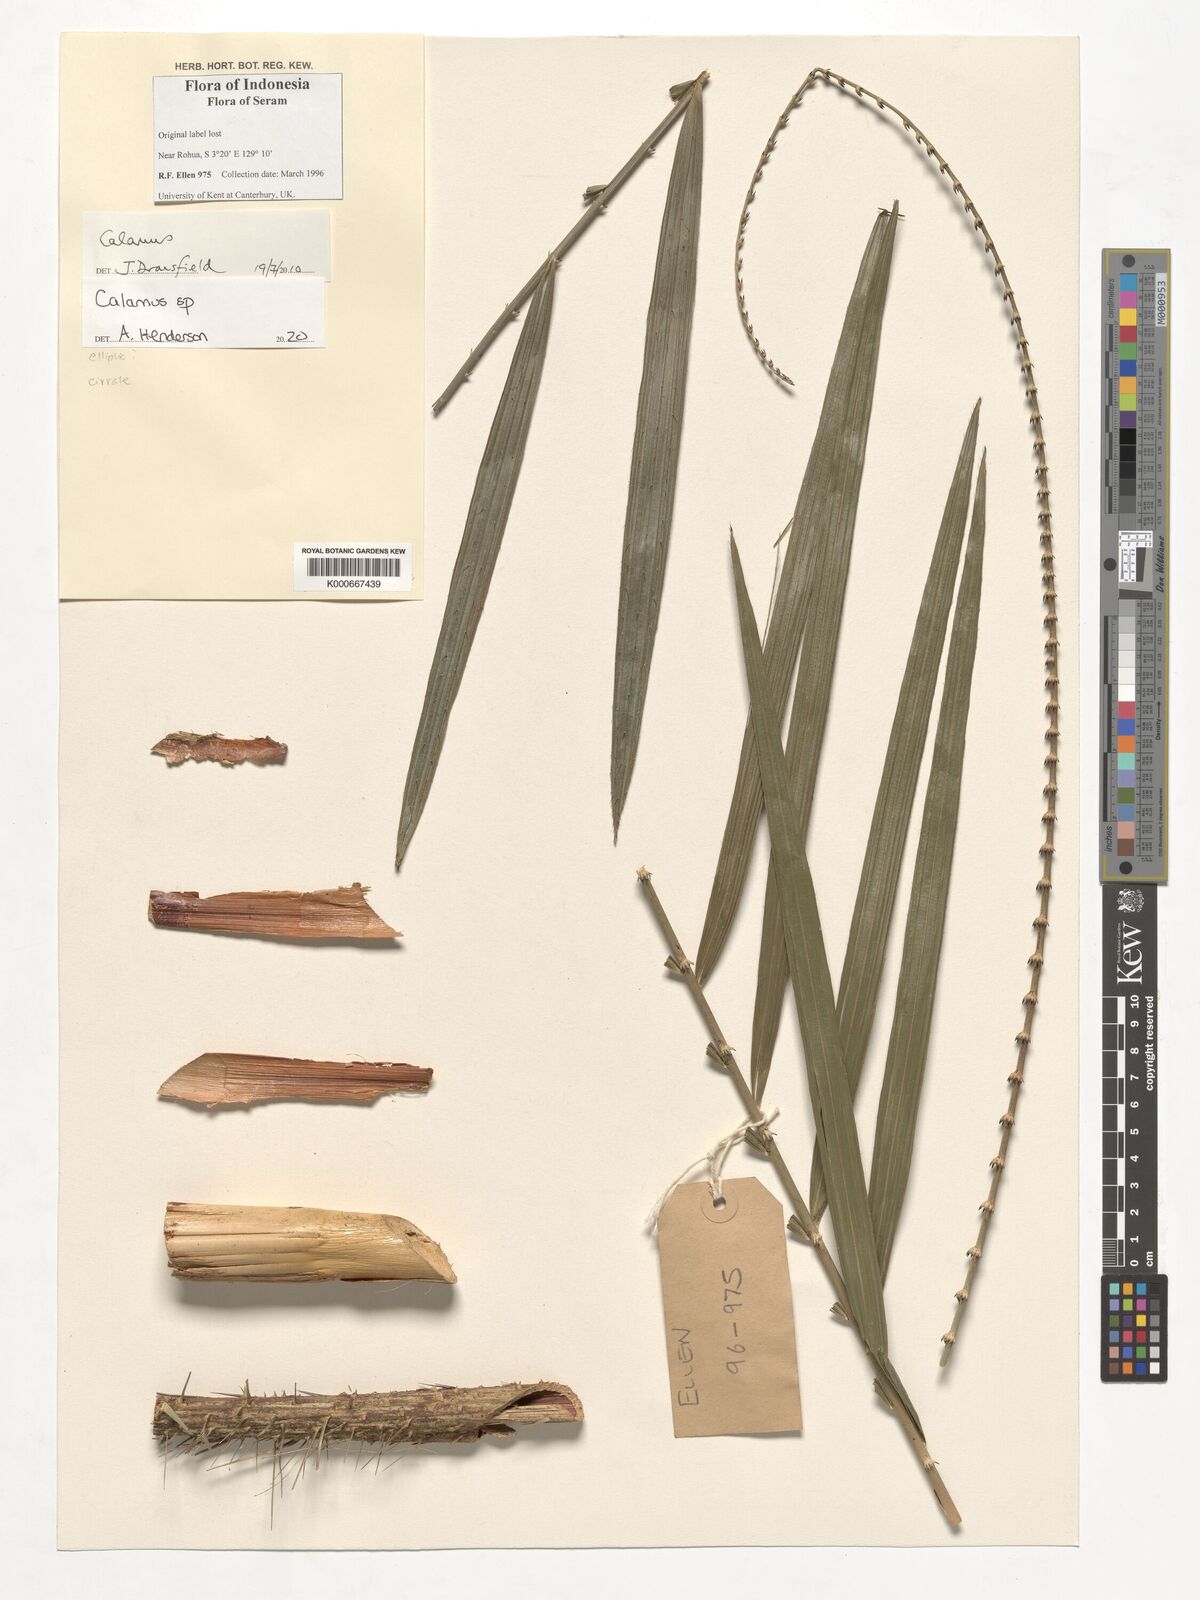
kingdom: Plantae
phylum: Tracheophyta
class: Liliopsida
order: Arecales
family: Arecaceae
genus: Calamus
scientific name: Calamus
